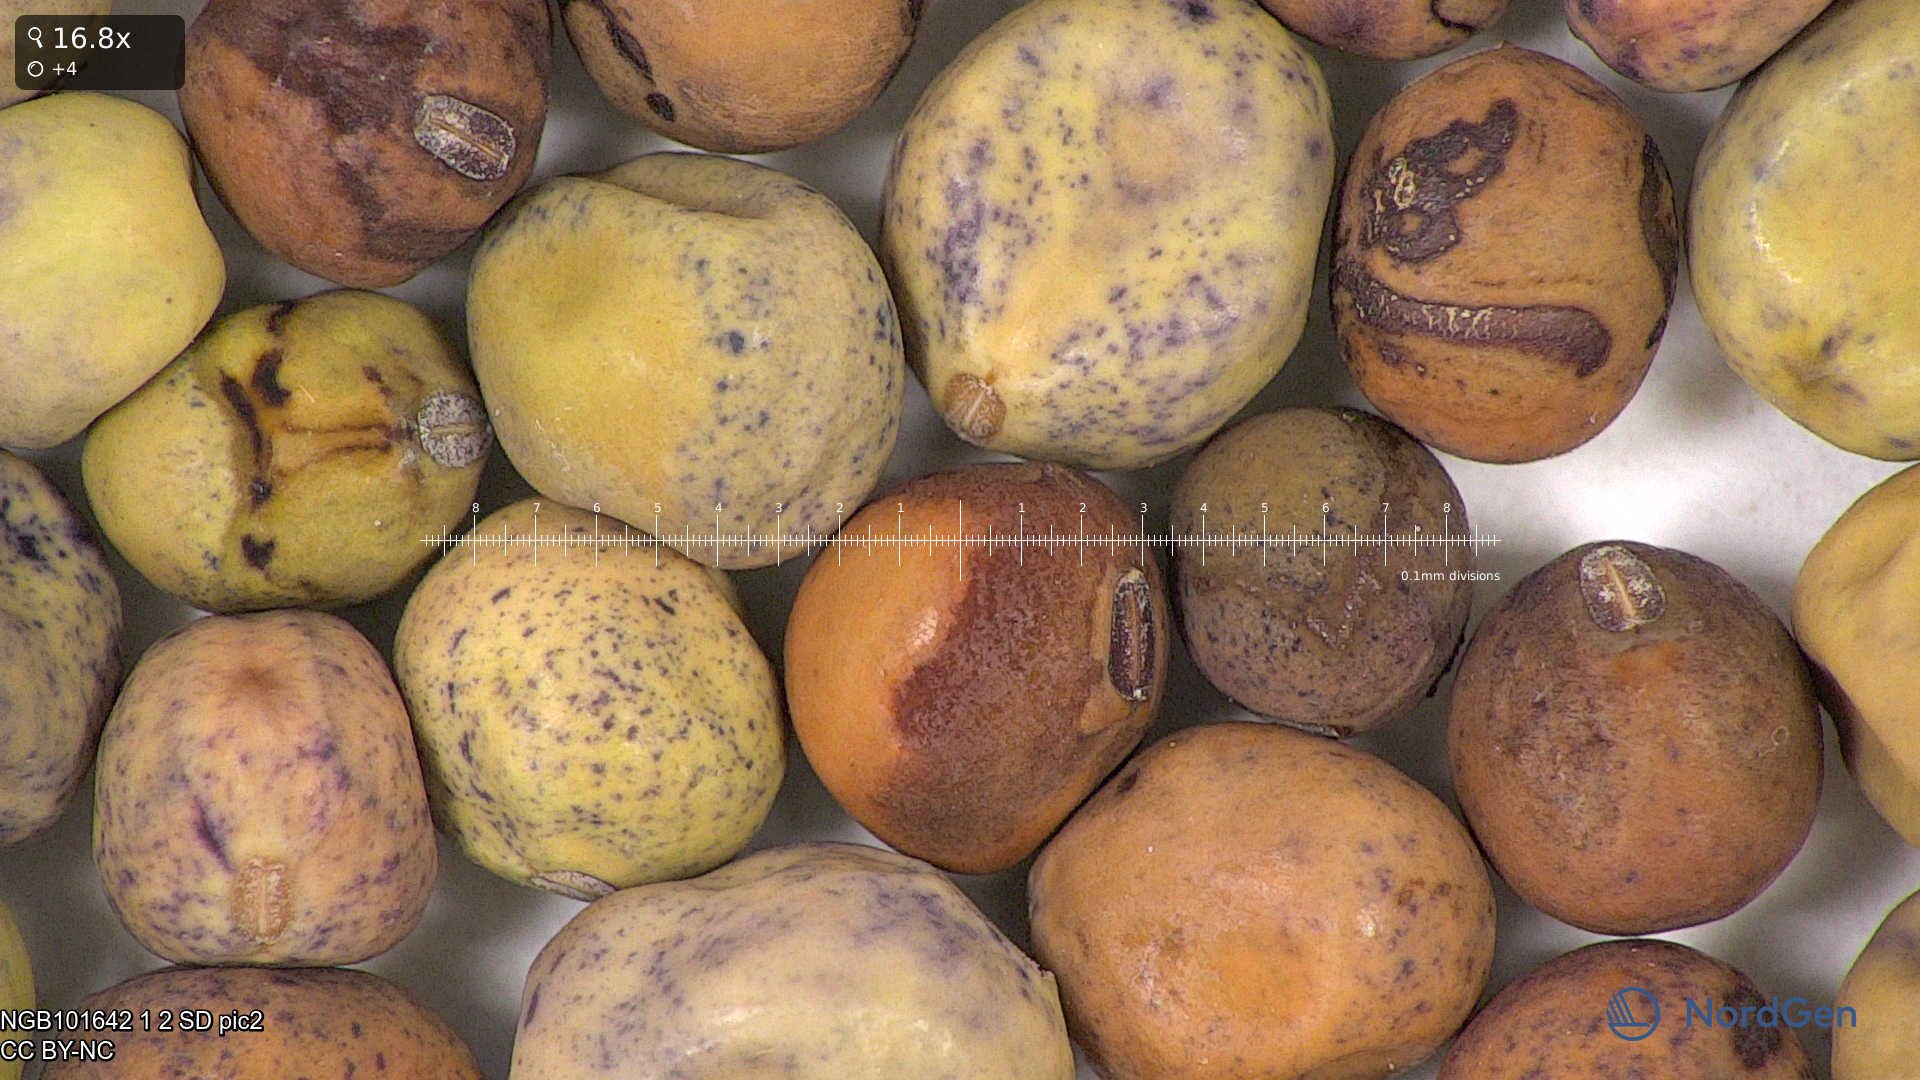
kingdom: Plantae
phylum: Tracheophyta
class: Magnoliopsida
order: Fabales
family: Fabaceae
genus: Lathyrus
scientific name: Lathyrus oleraceus
